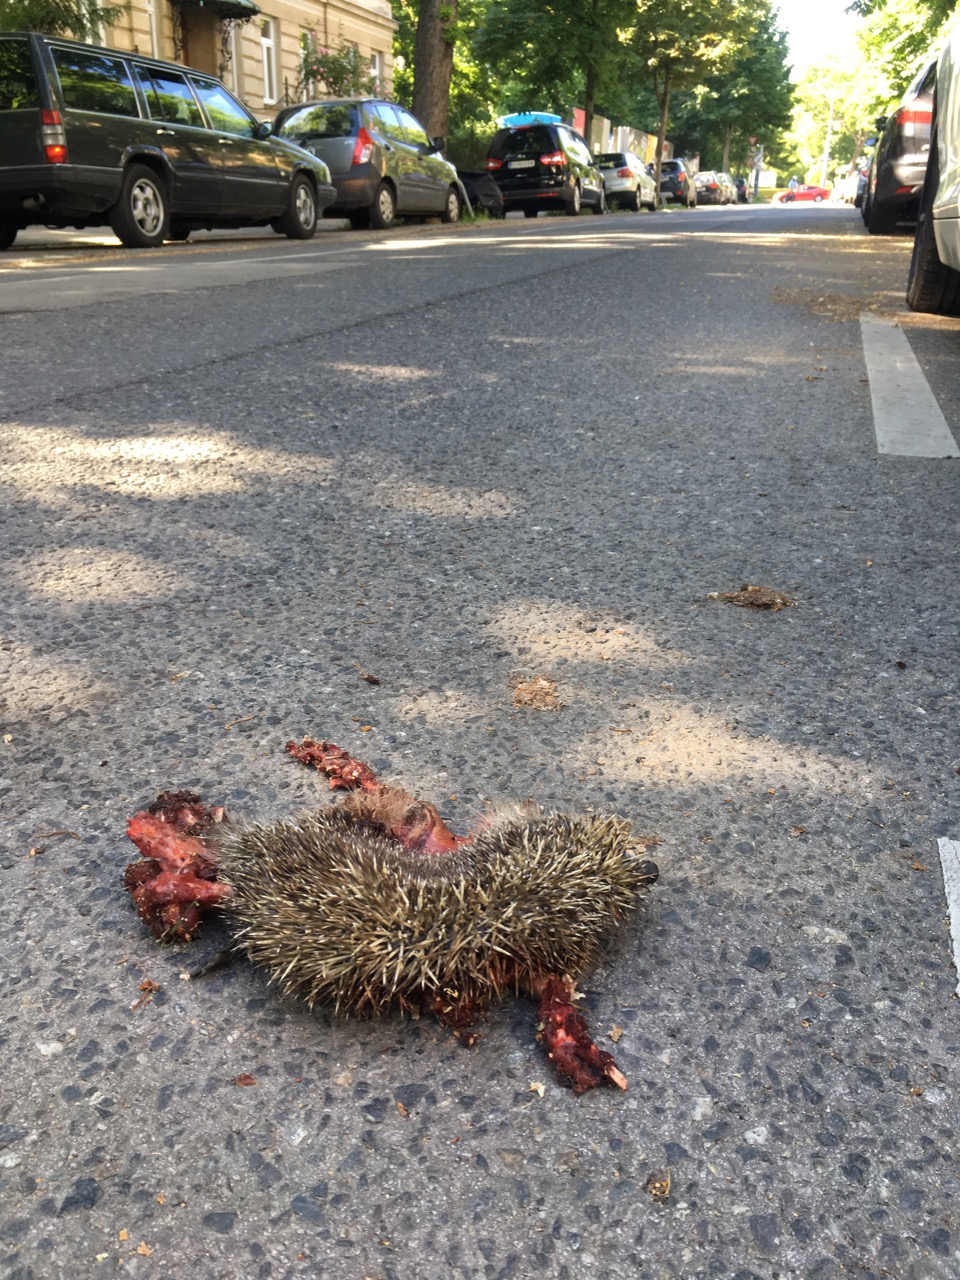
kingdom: Animalia
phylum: Chordata
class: Mammalia
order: Erinaceomorpha
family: Erinaceidae
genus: Erinaceus
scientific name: Erinaceus
